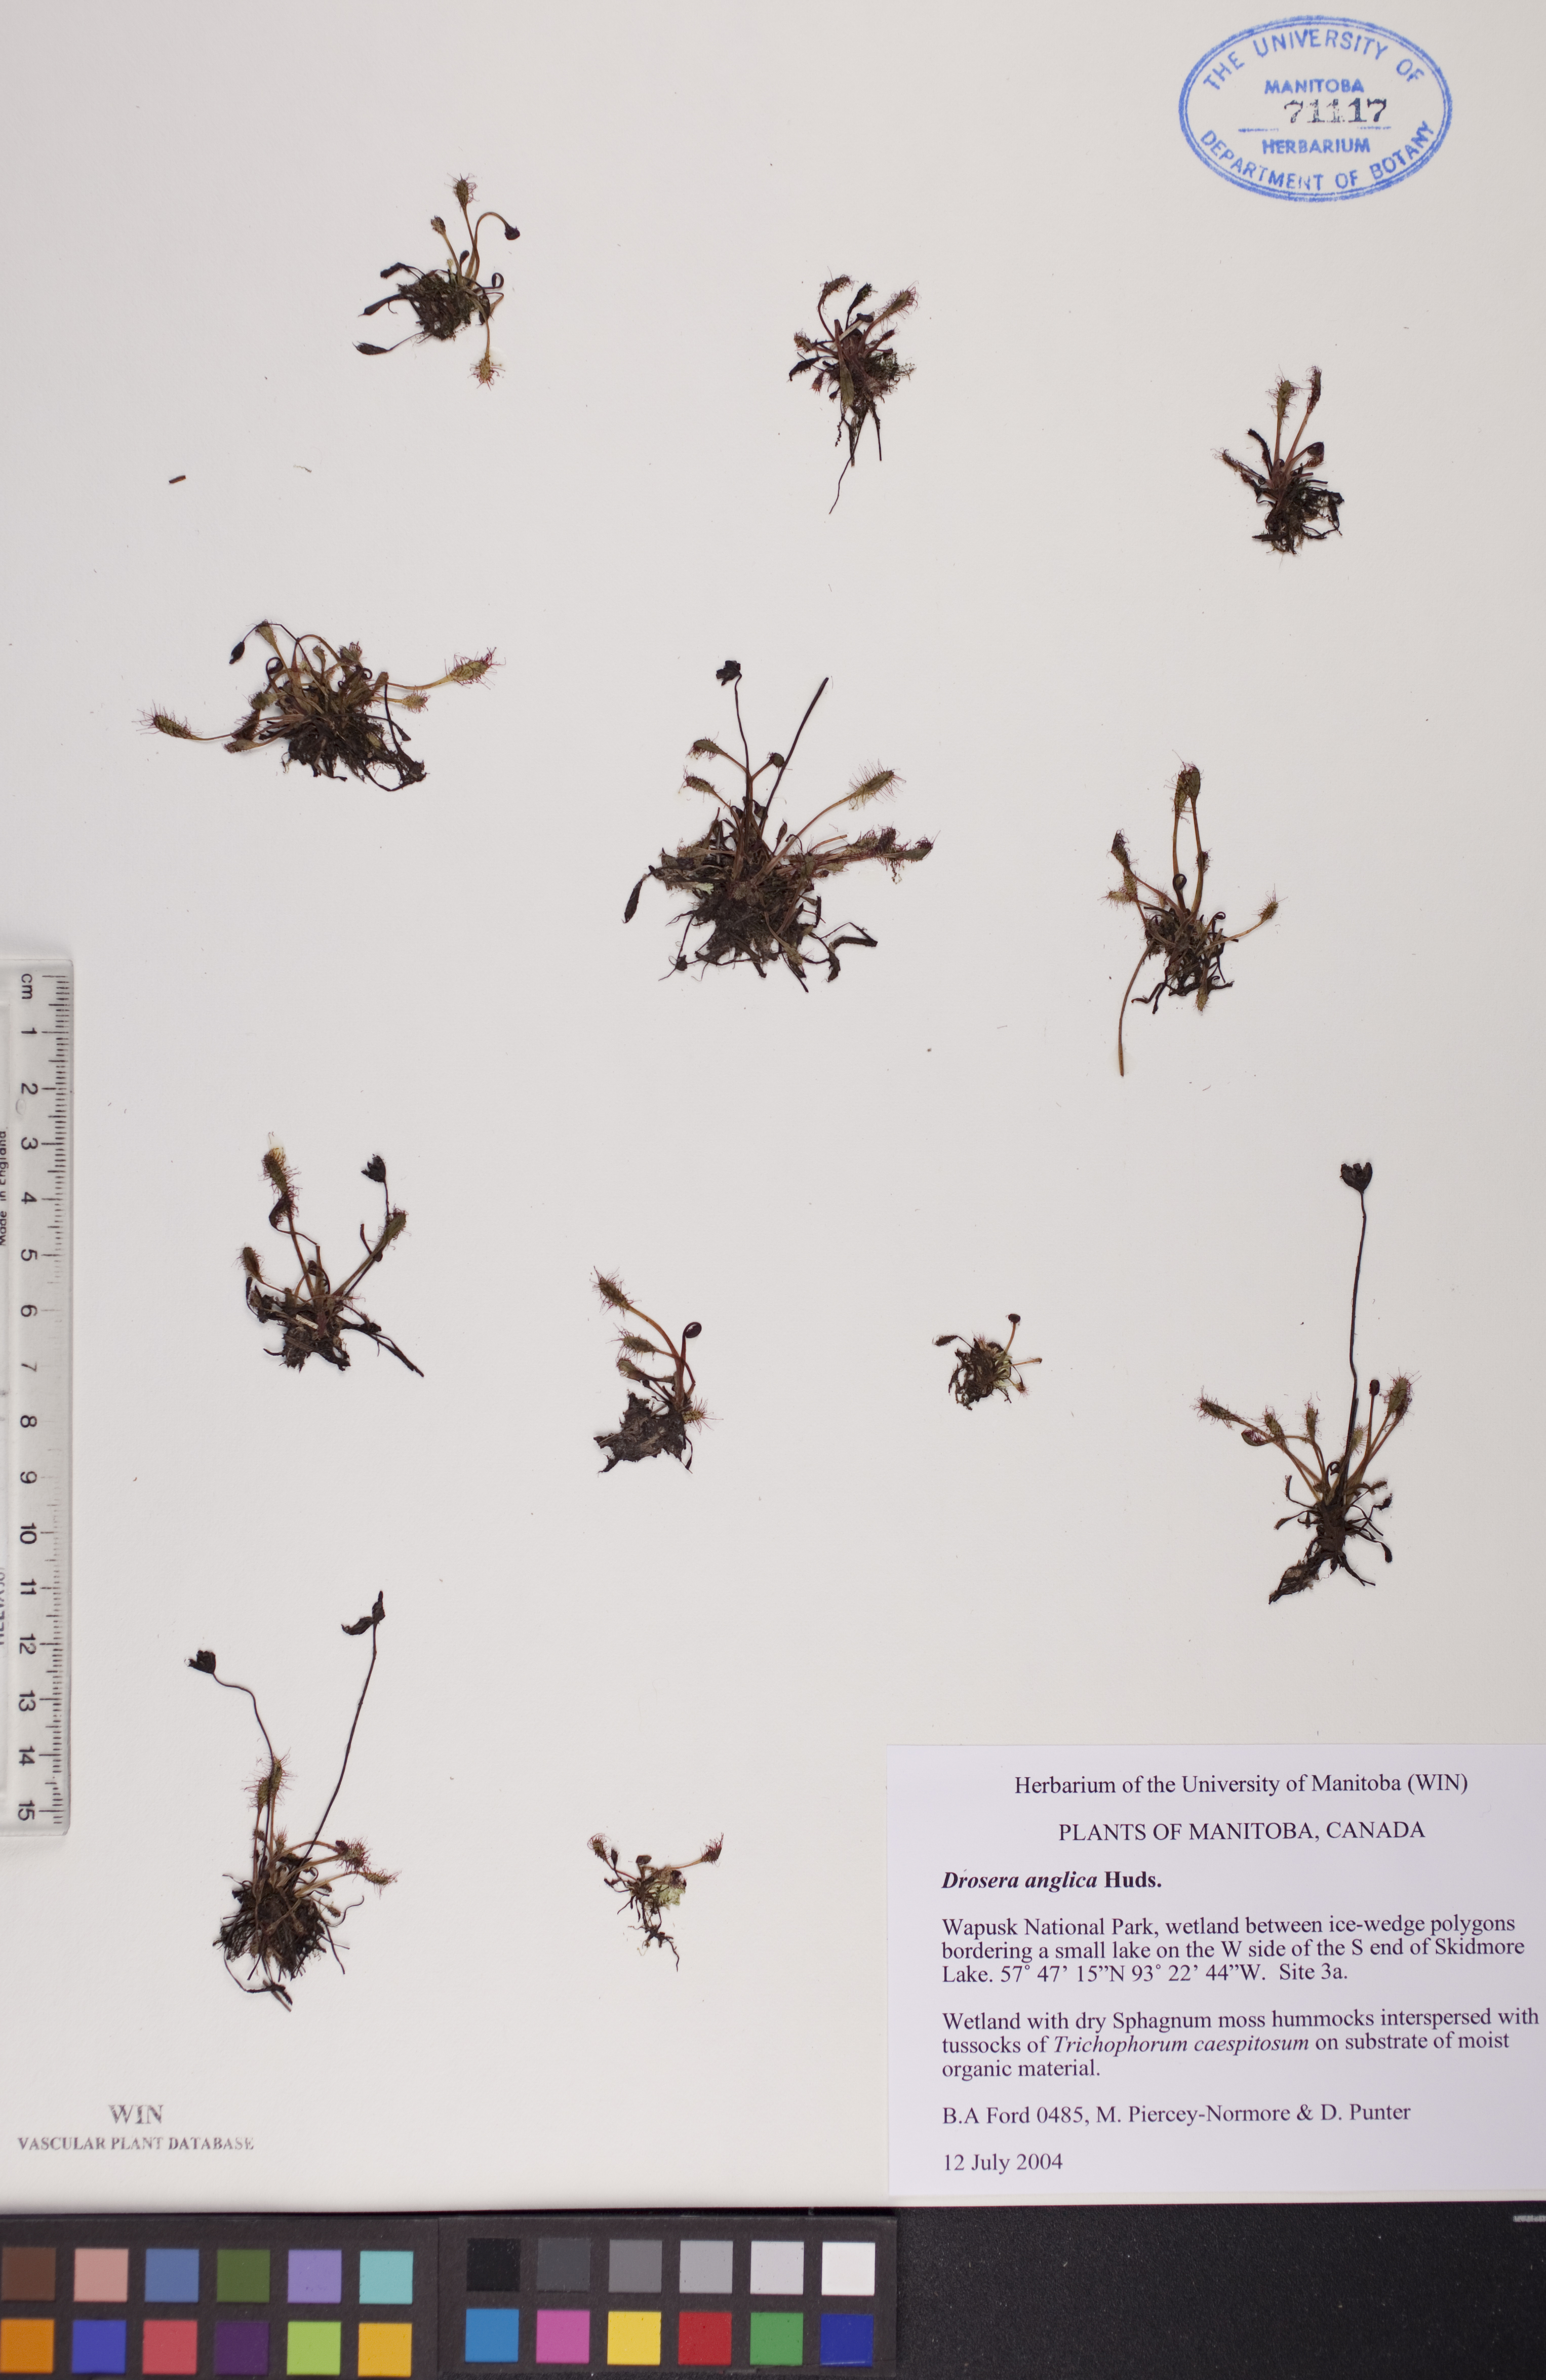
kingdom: Plantae
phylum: Tracheophyta
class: Magnoliopsida
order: Caryophyllales
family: Droseraceae
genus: Drosera
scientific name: Drosera anglica
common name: Great sundew
